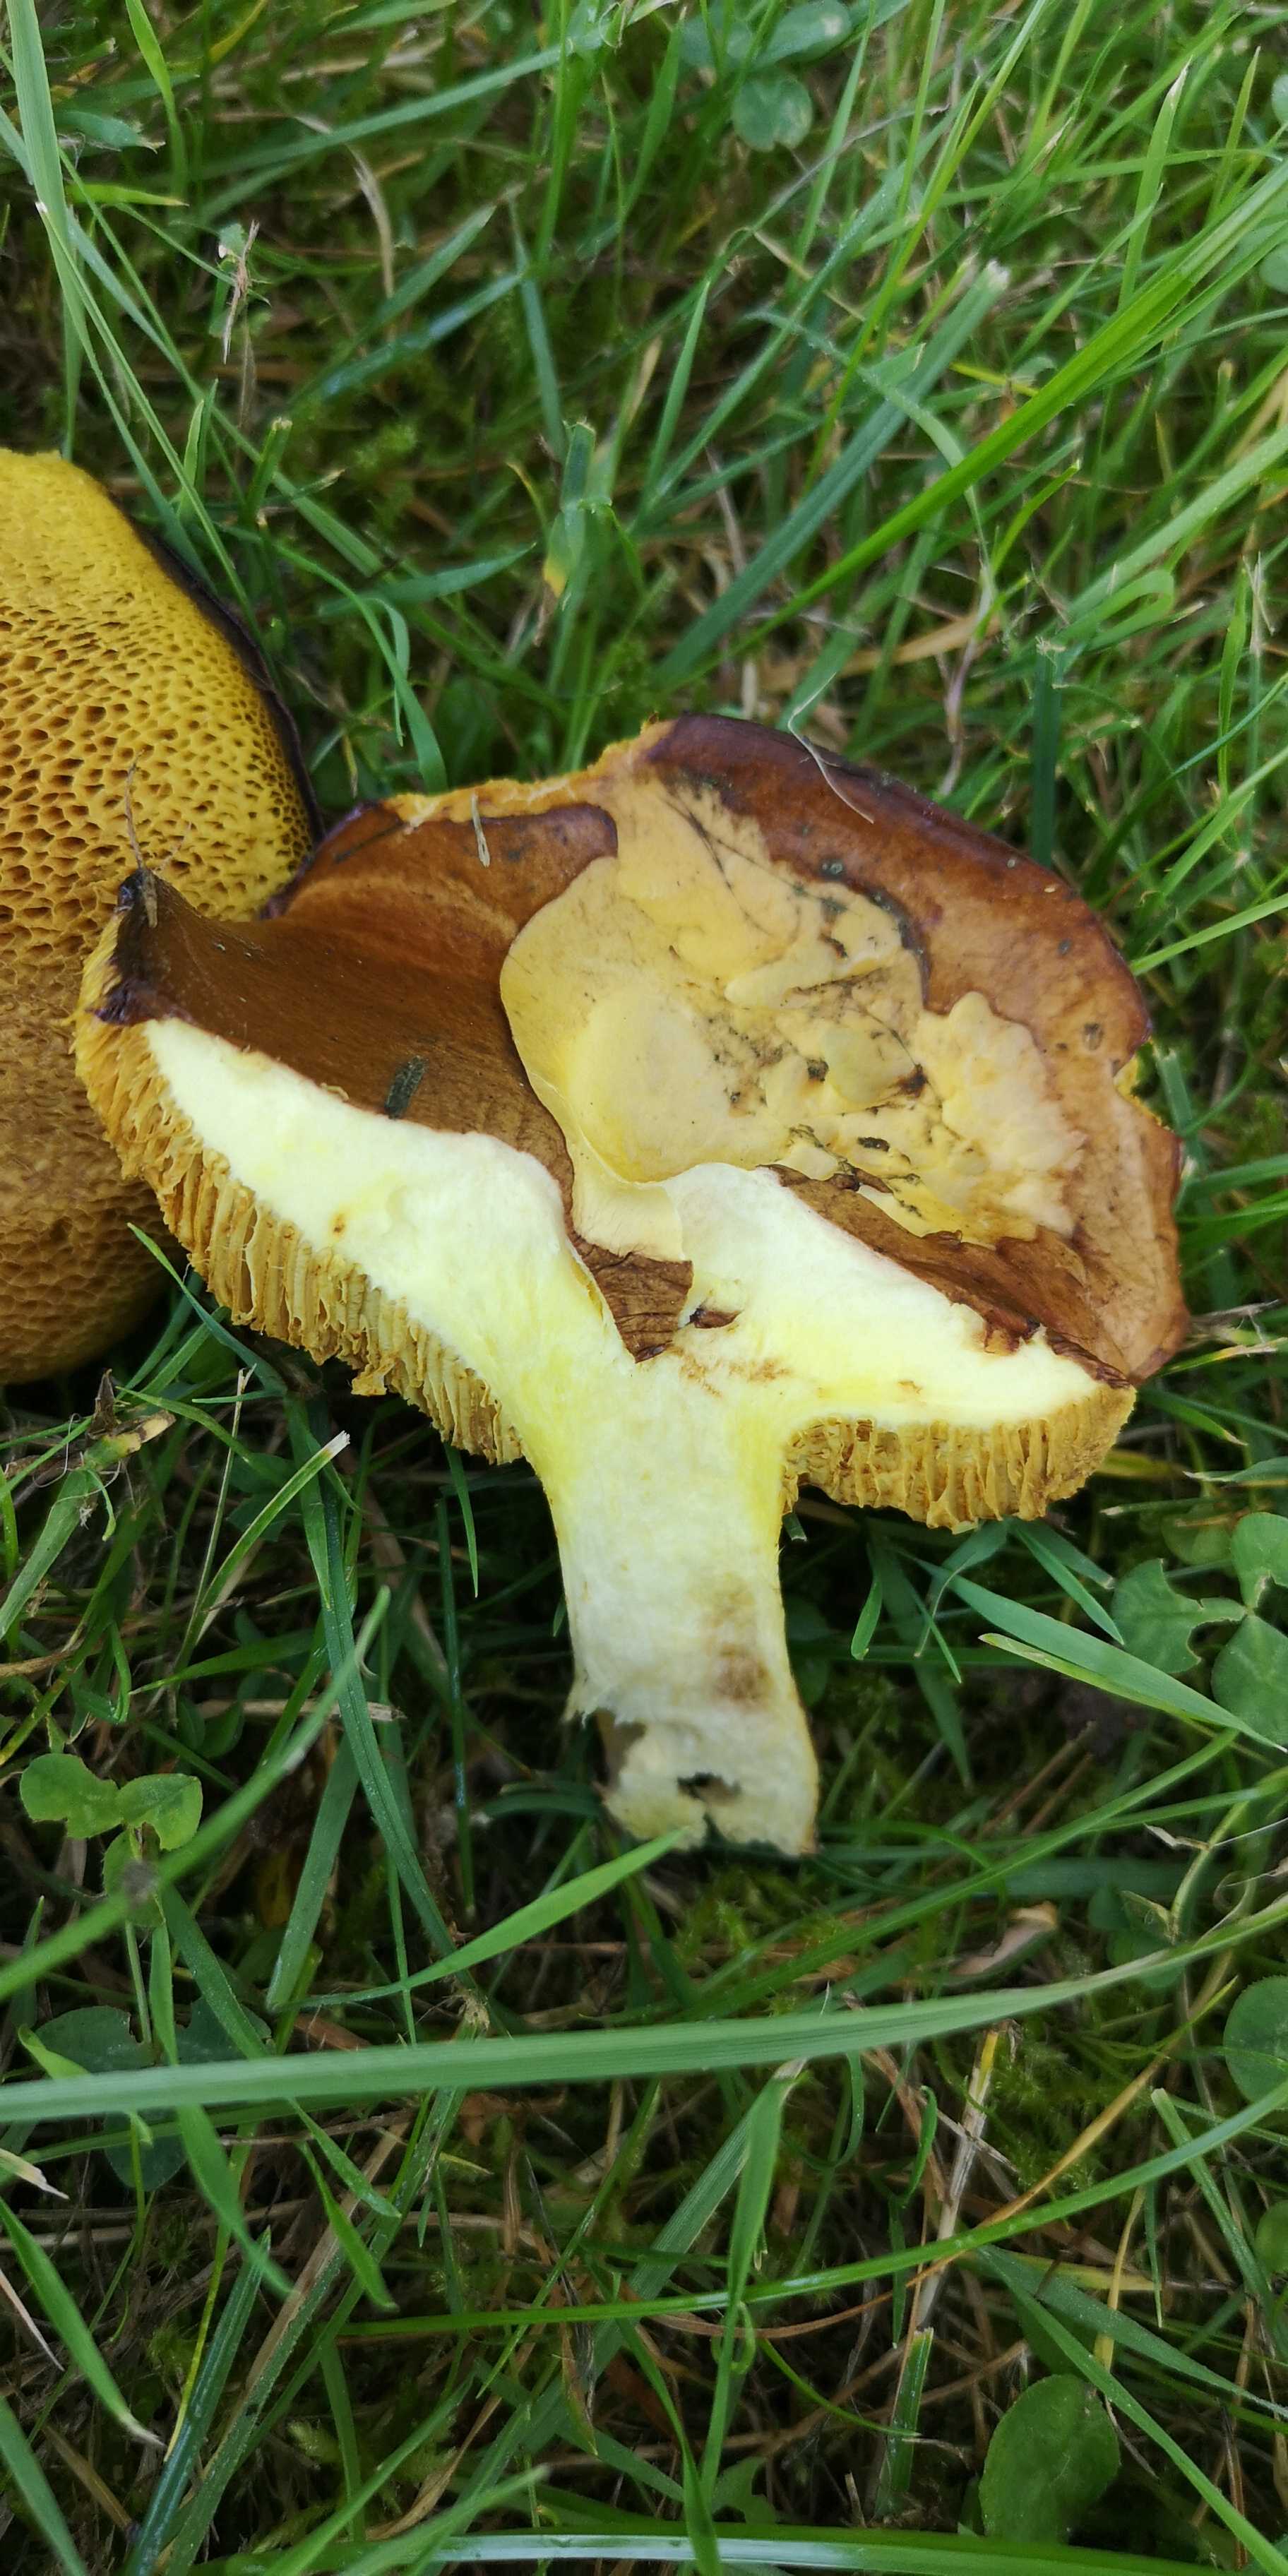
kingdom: Fungi
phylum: Basidiomycota
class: Agaricomycetes
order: Boletales
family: Suillaceae
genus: Suillus
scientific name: Suillus granulatus
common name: kornet slimrørhat
